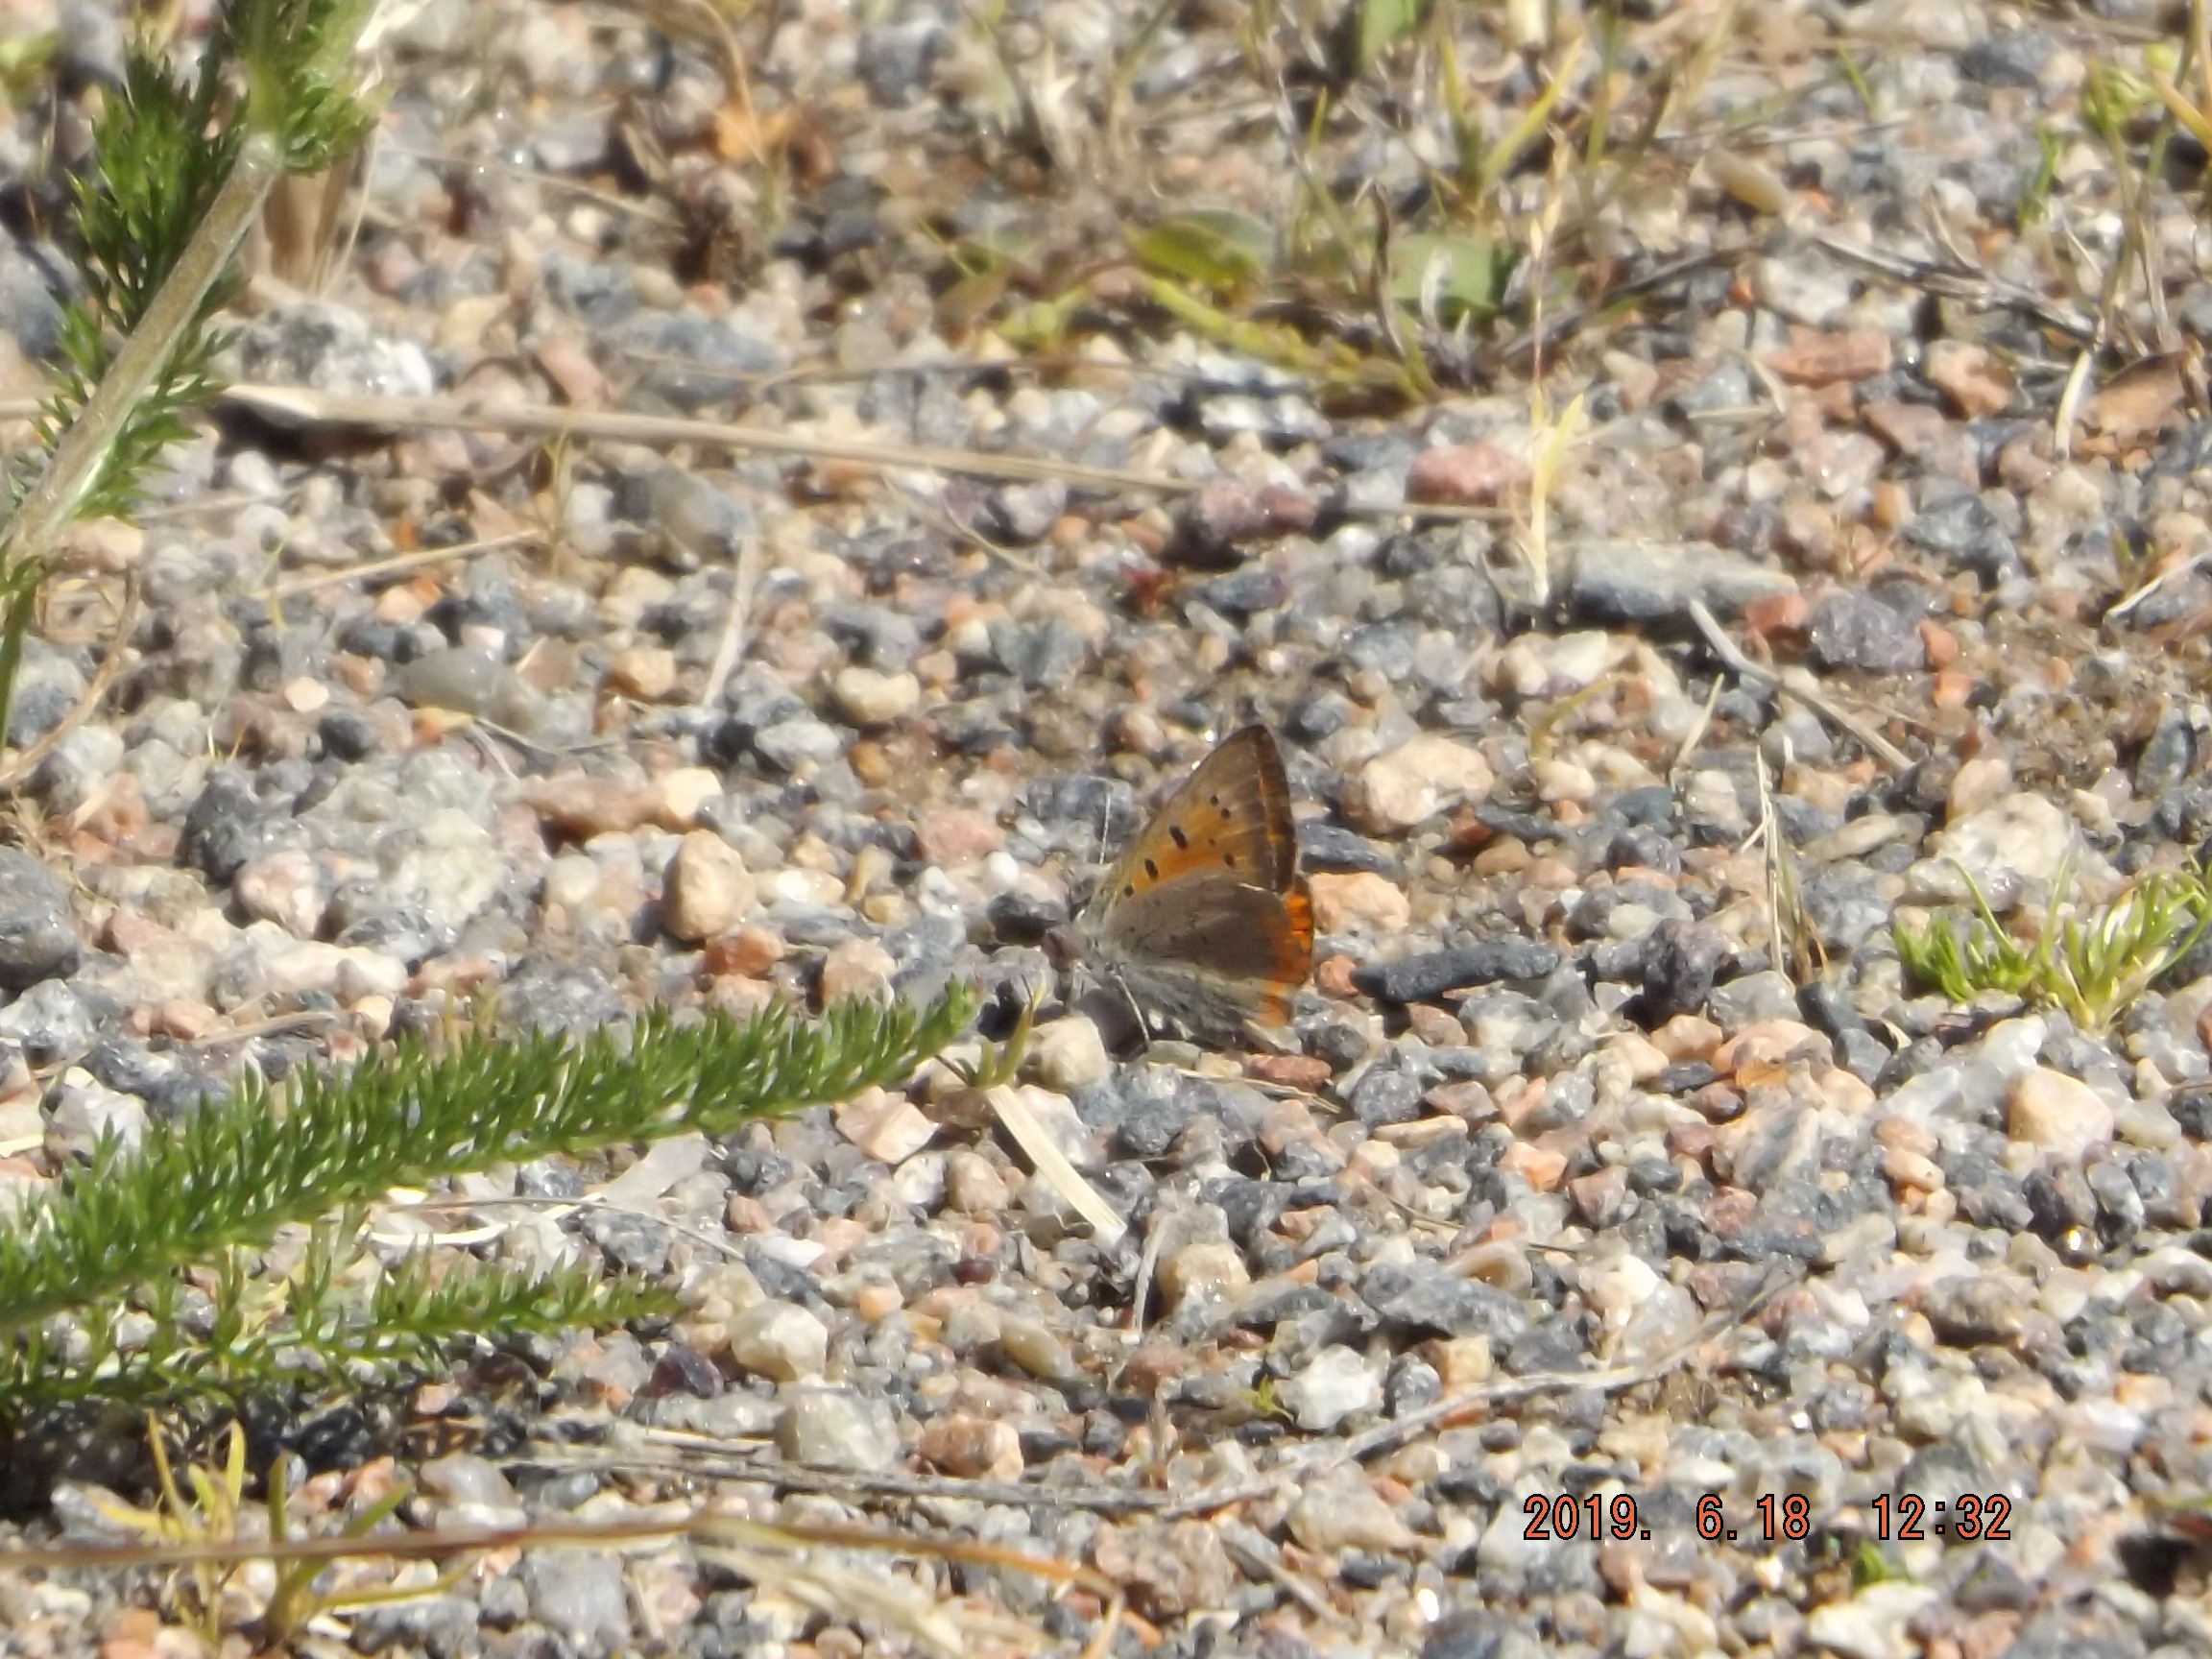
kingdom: Animalia
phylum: Arthropoda
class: Insecta
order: Lepidoptera
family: Lycaenidae
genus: Lycaena
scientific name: Lycaena phlaeas
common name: Small copper
